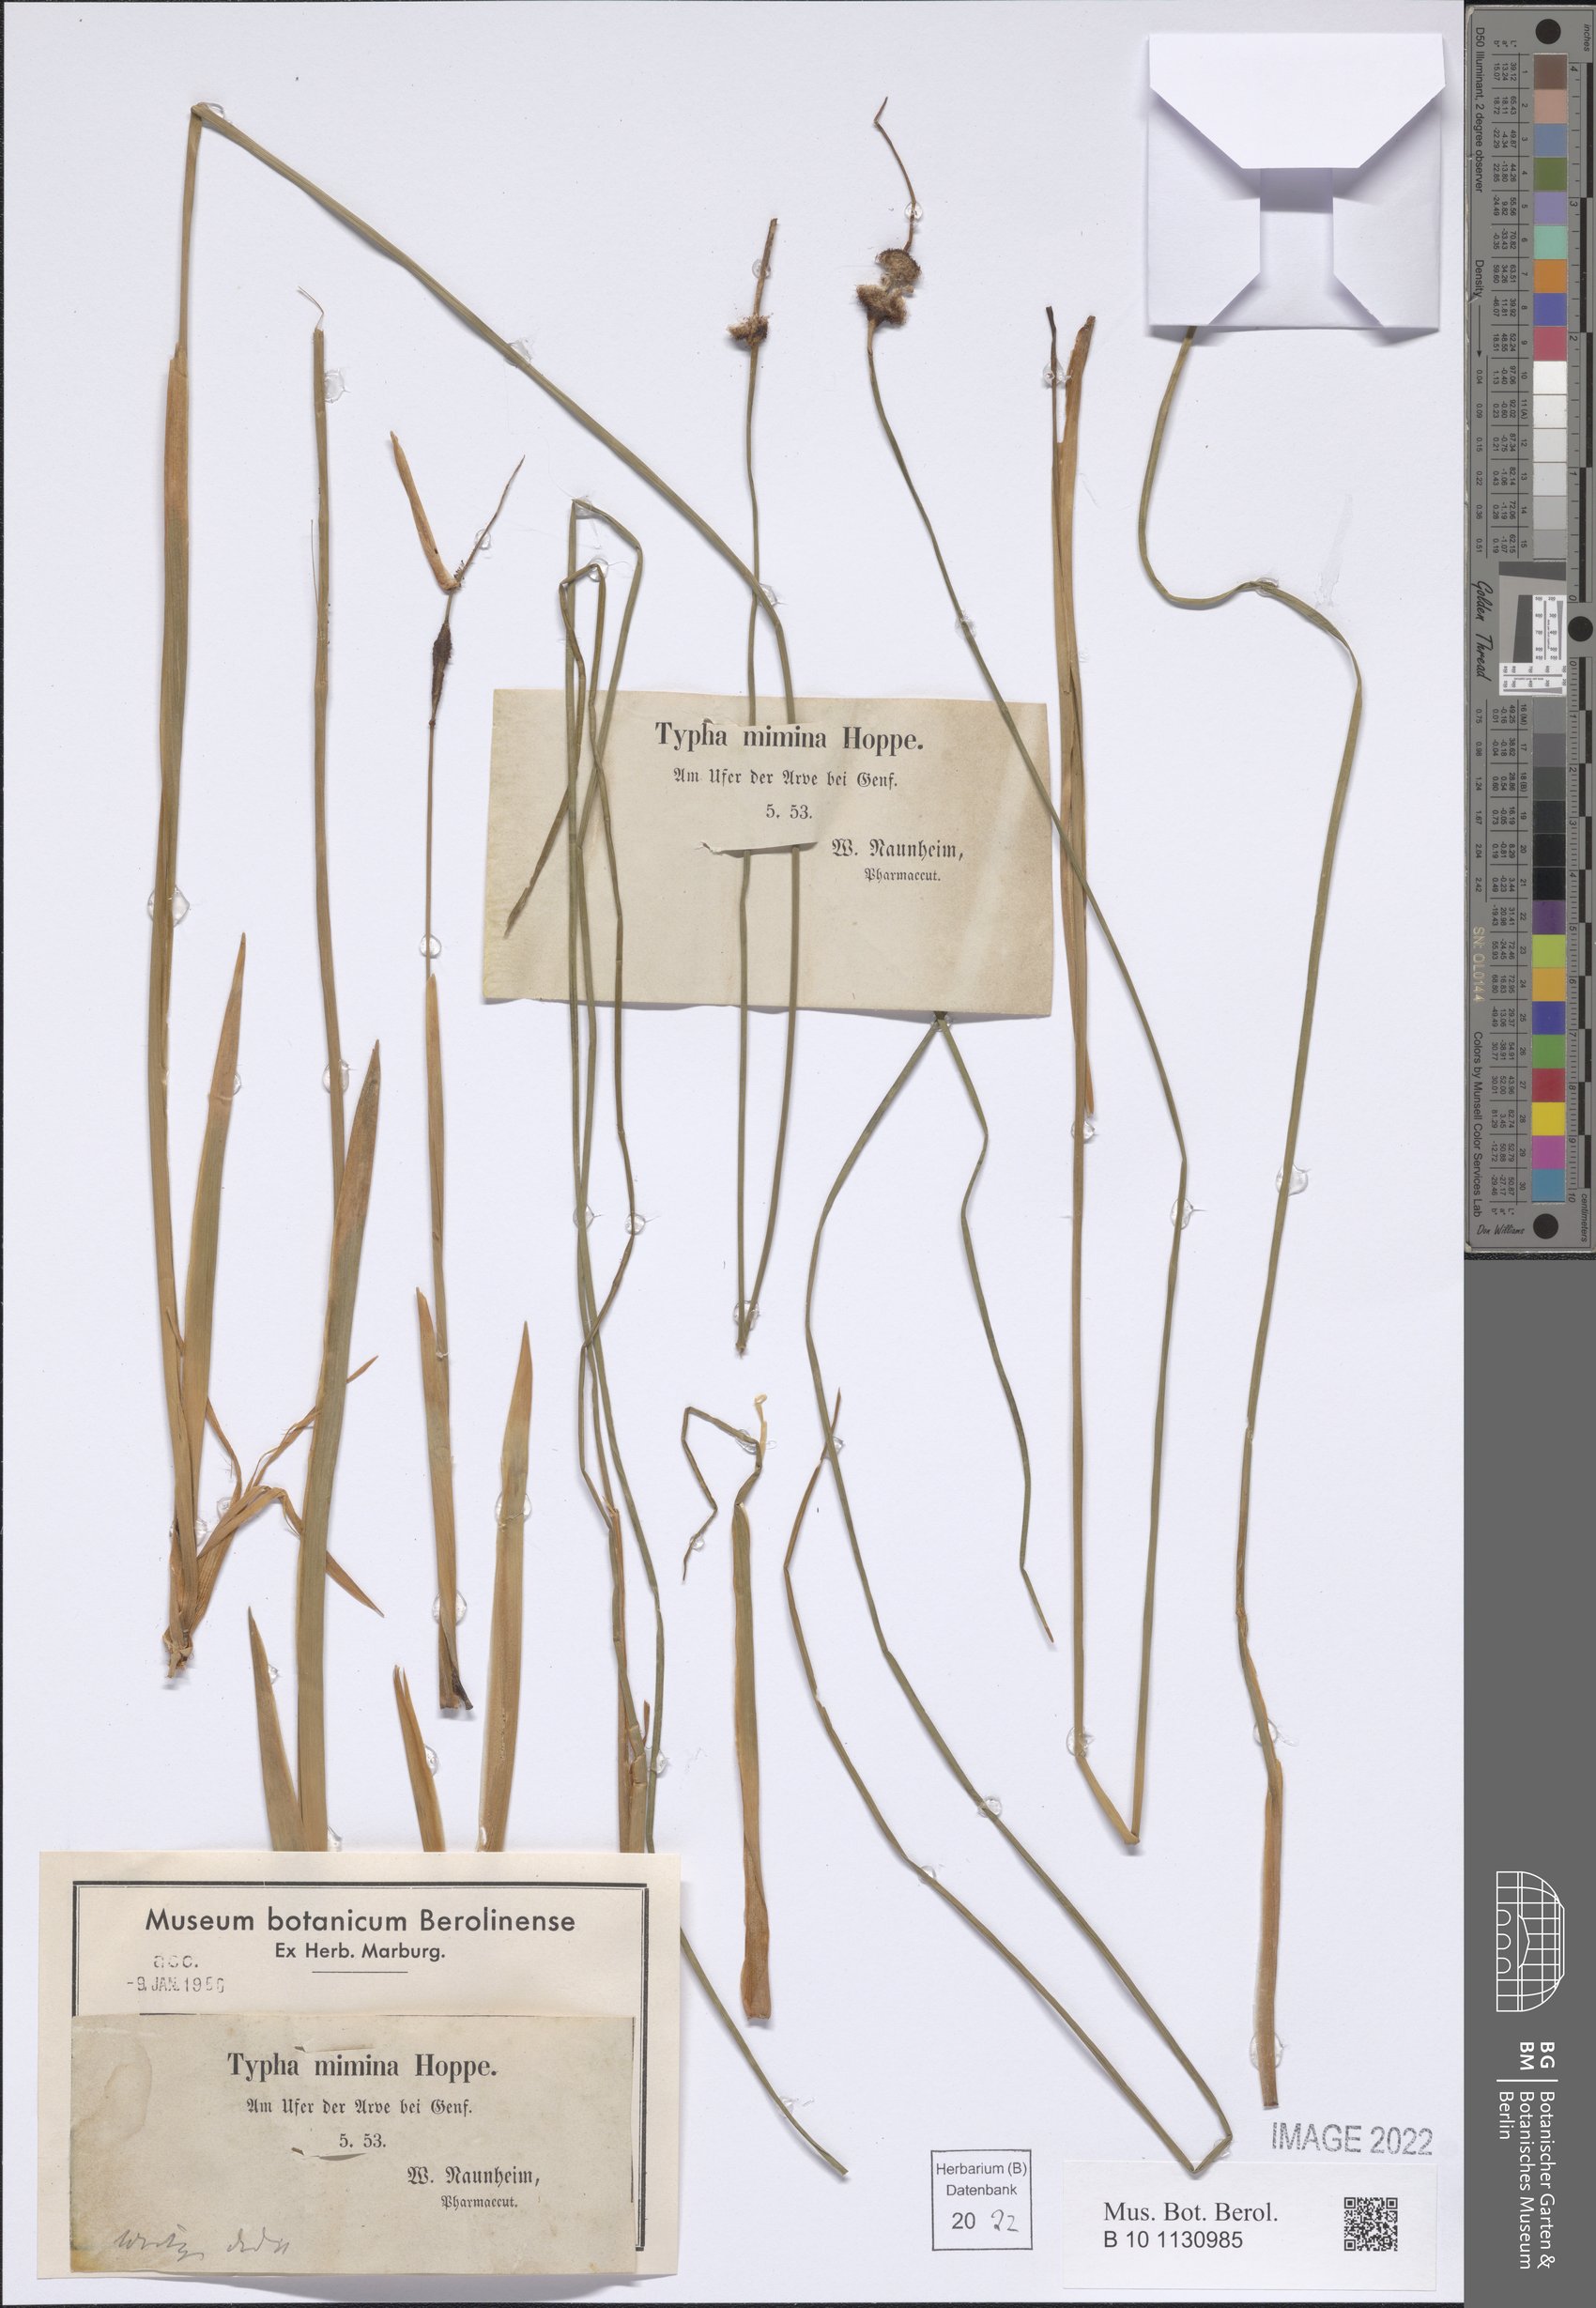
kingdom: Plantae
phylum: Tracheophyta
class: Liliopsida
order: Poales
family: Typhaceae
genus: Typha
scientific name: Typha minima
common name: Dwarf bulrush
